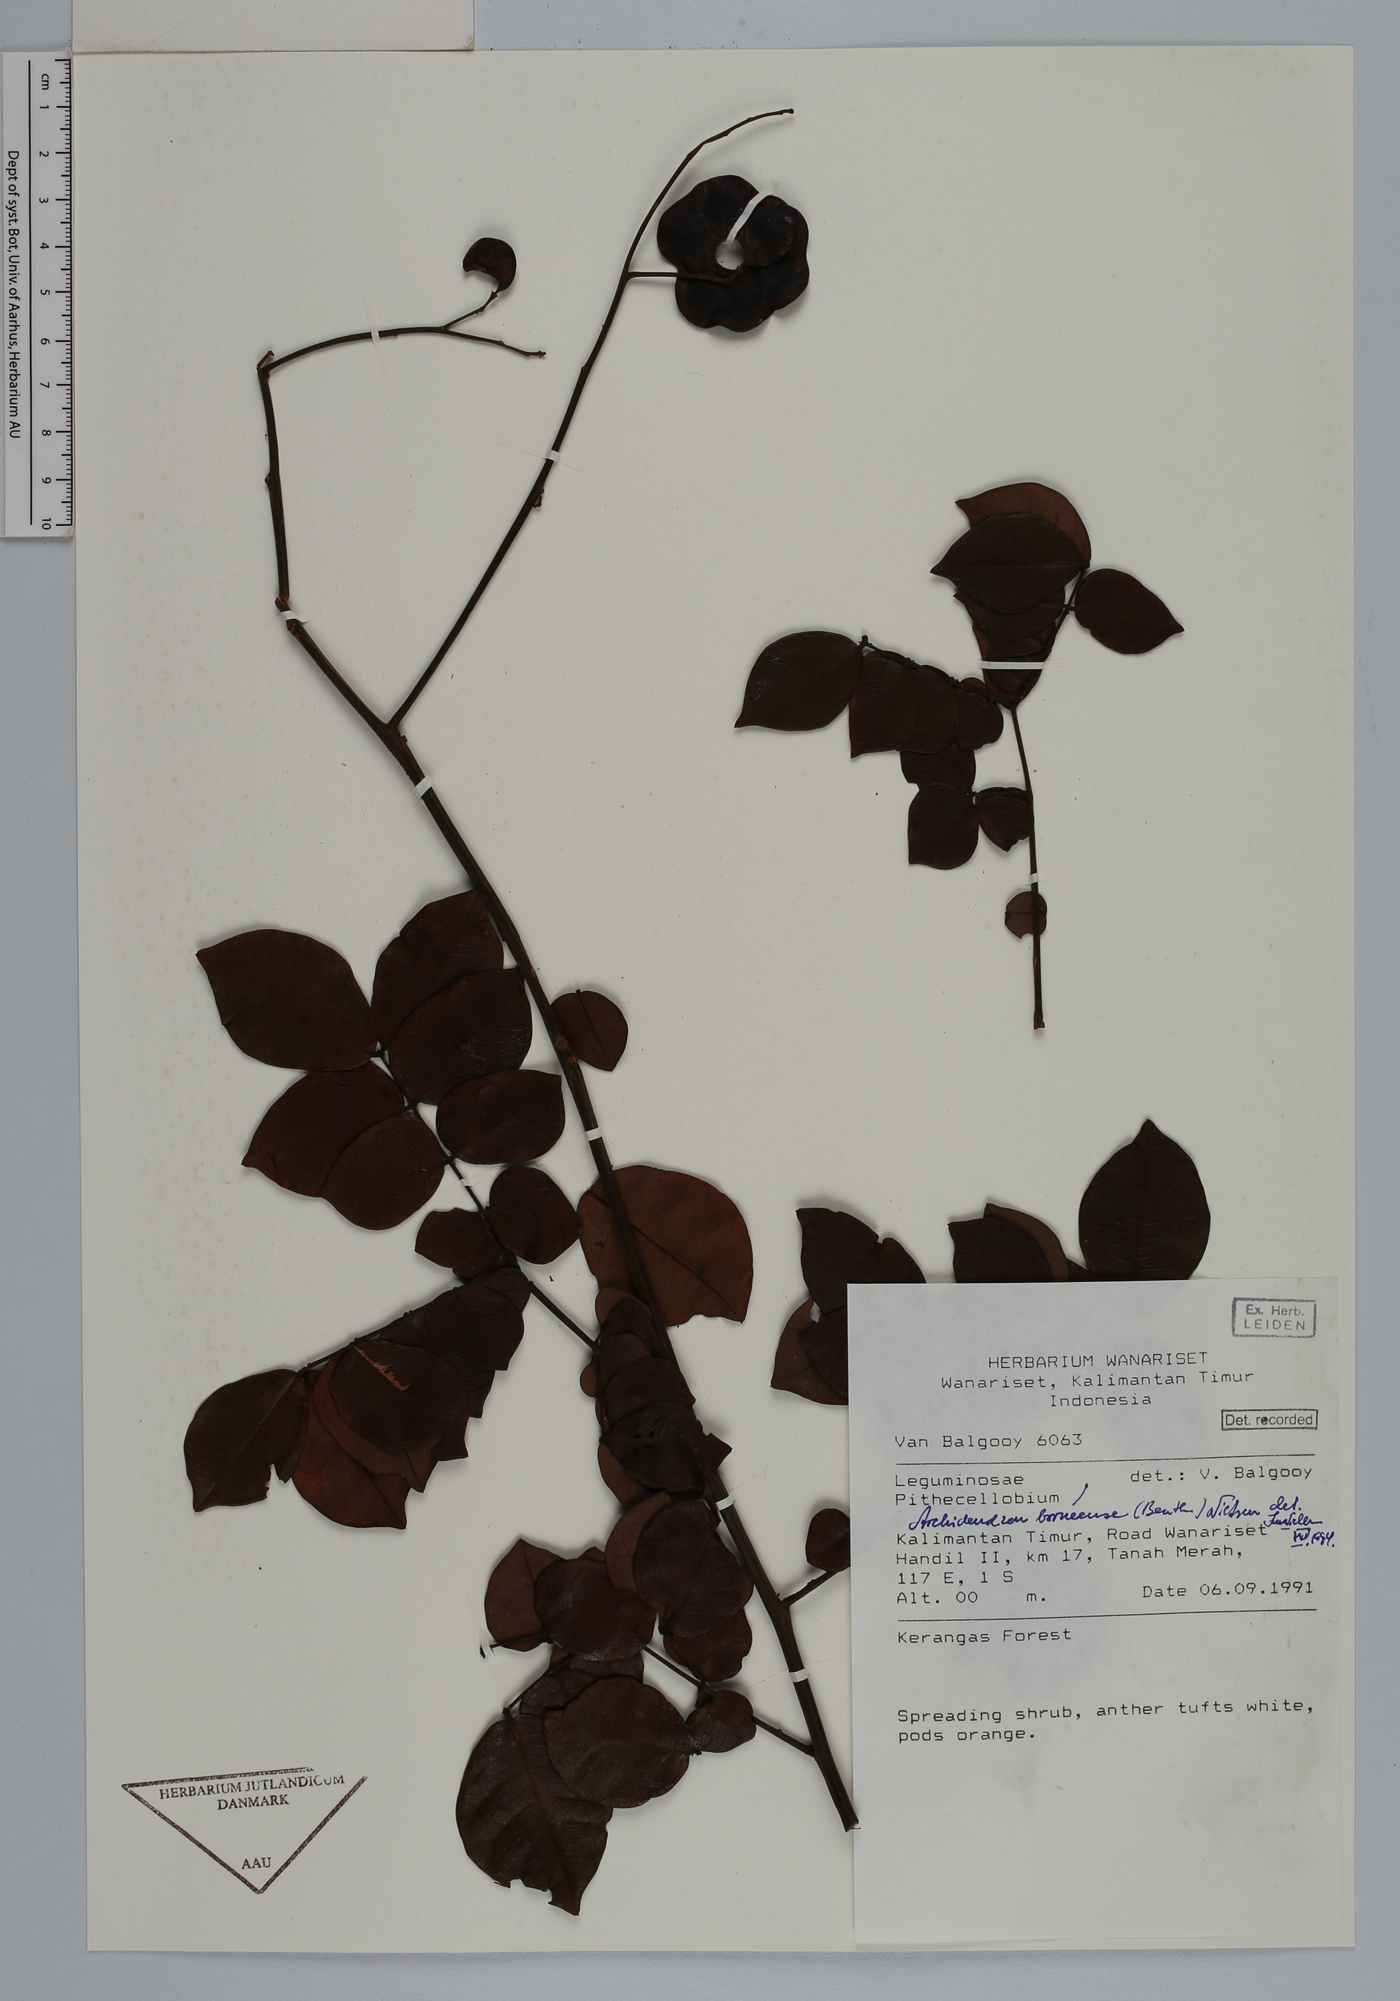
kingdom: Plantae
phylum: Tracheophyta
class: Magnoliopsida
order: Fabales
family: Fabaceae
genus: Archidendron
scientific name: Archidendron borneense
